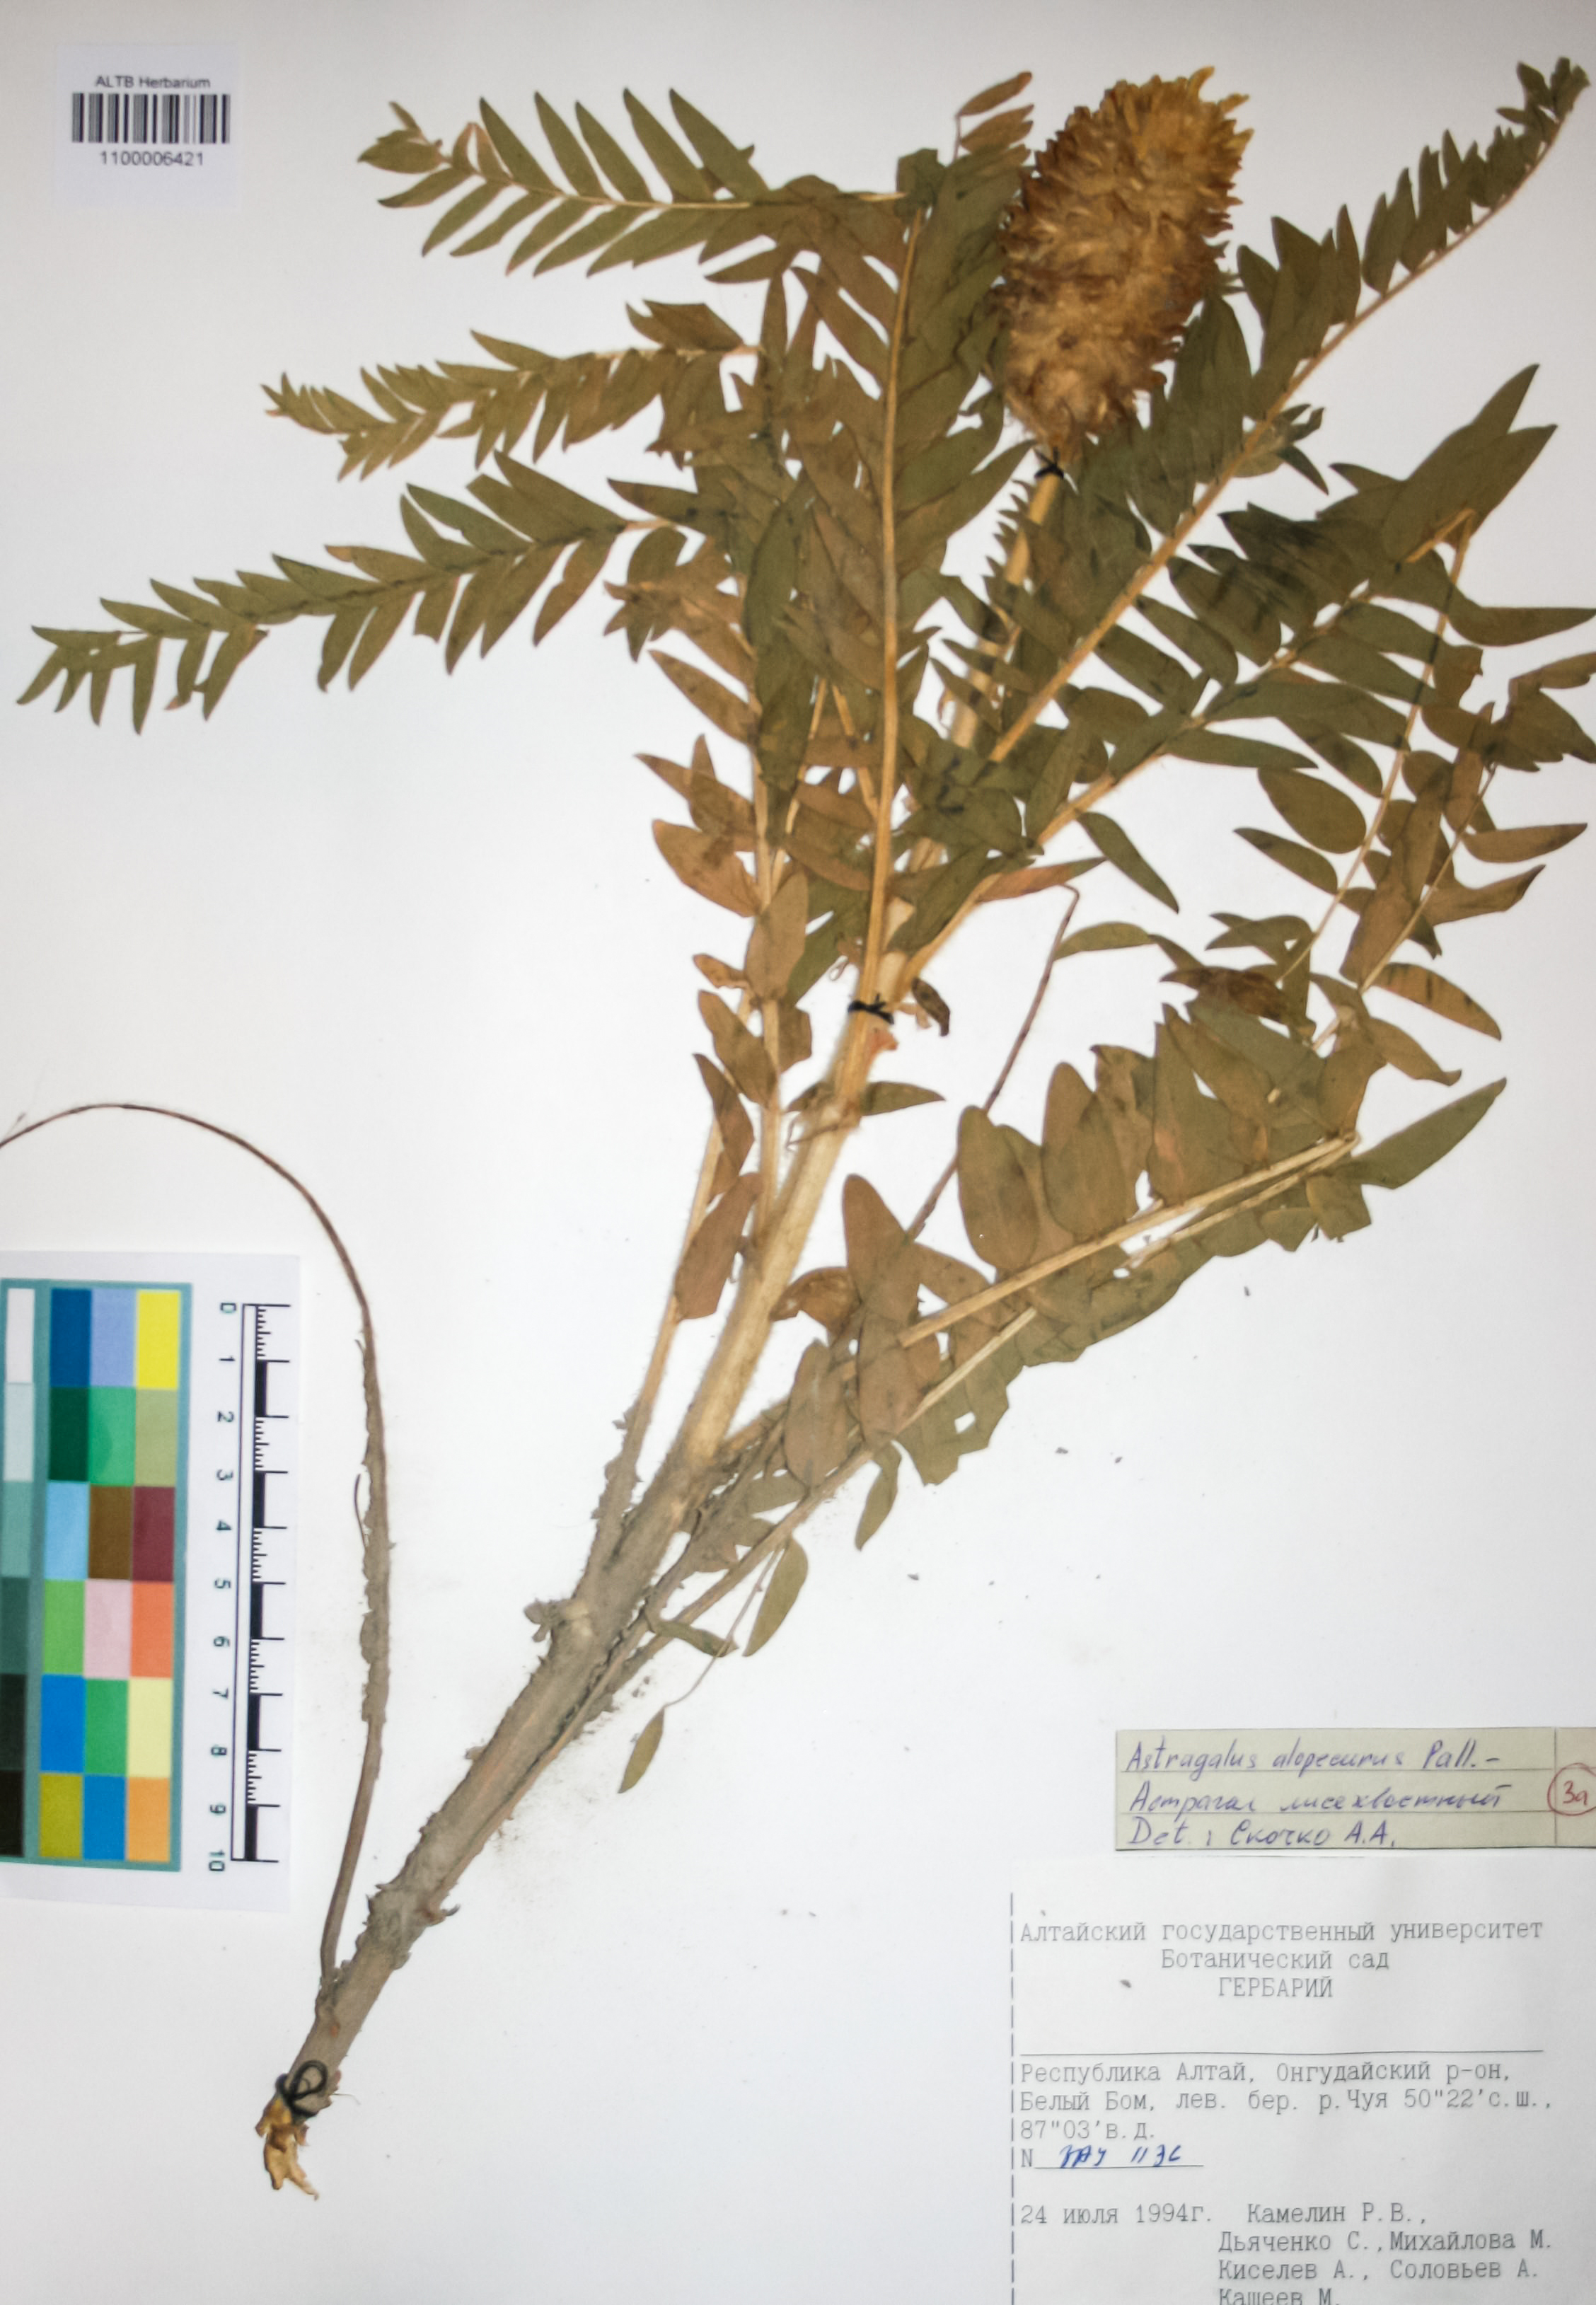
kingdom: Plantae
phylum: Tracheophyta
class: Magnoliopsida
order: Fabales
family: Fabaceae
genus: Astragalus
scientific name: Astragalus alopecurus
